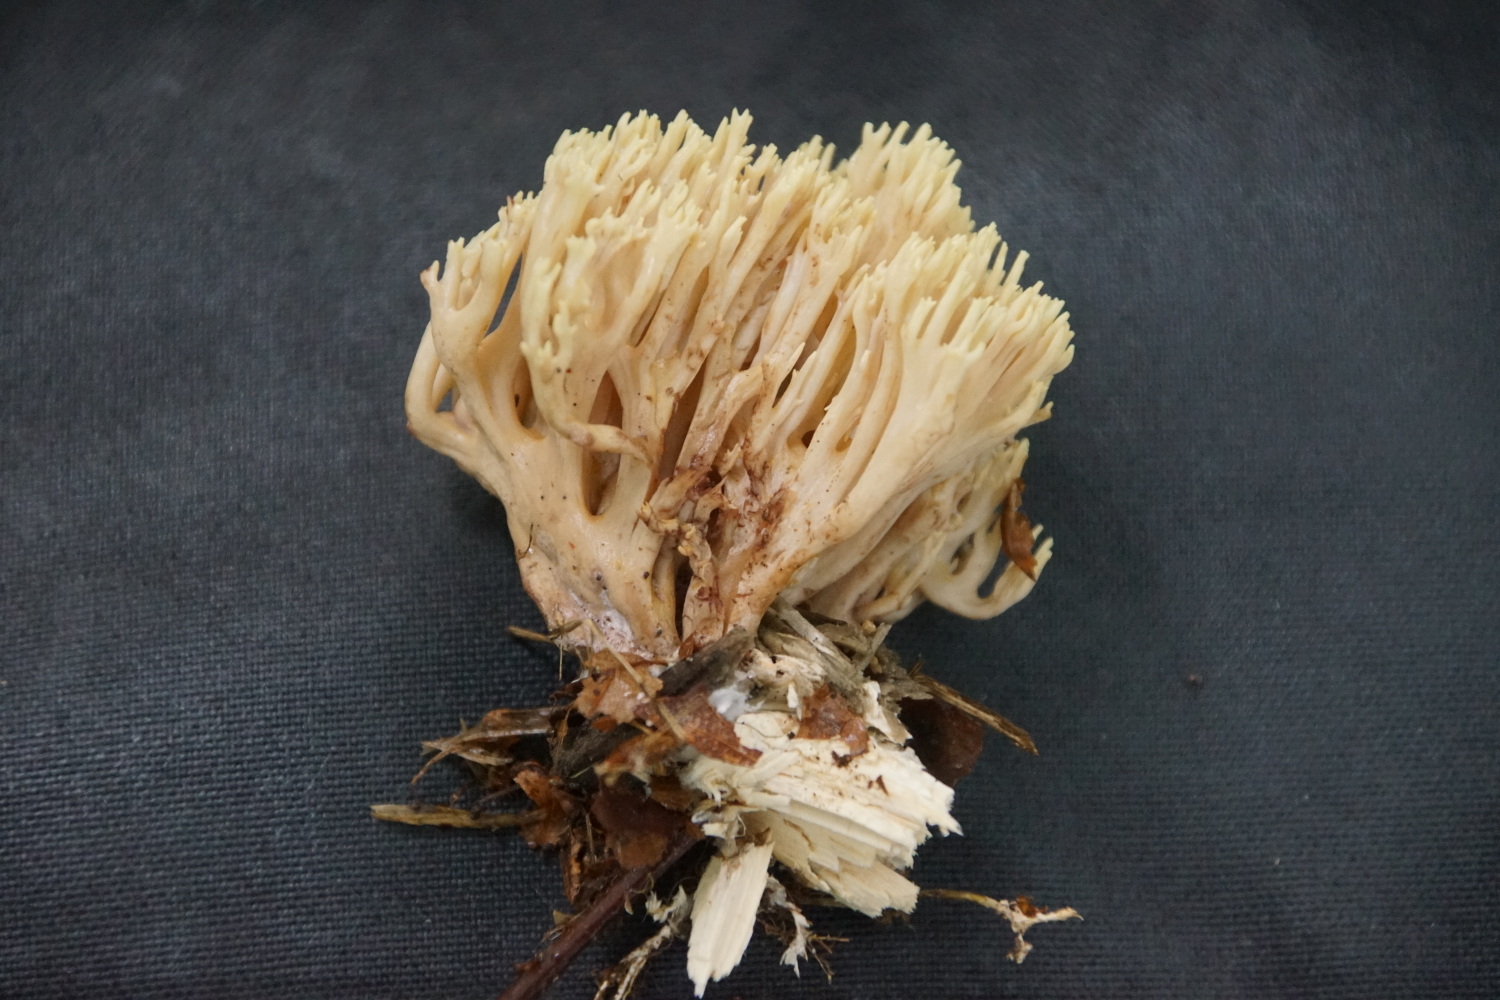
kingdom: Fungi
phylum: Basidiomycota
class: Agaricomycetes
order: Gomphales
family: Gomphaceae
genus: Ramaria
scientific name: Ramaria stricta
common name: rank koralsvamp
